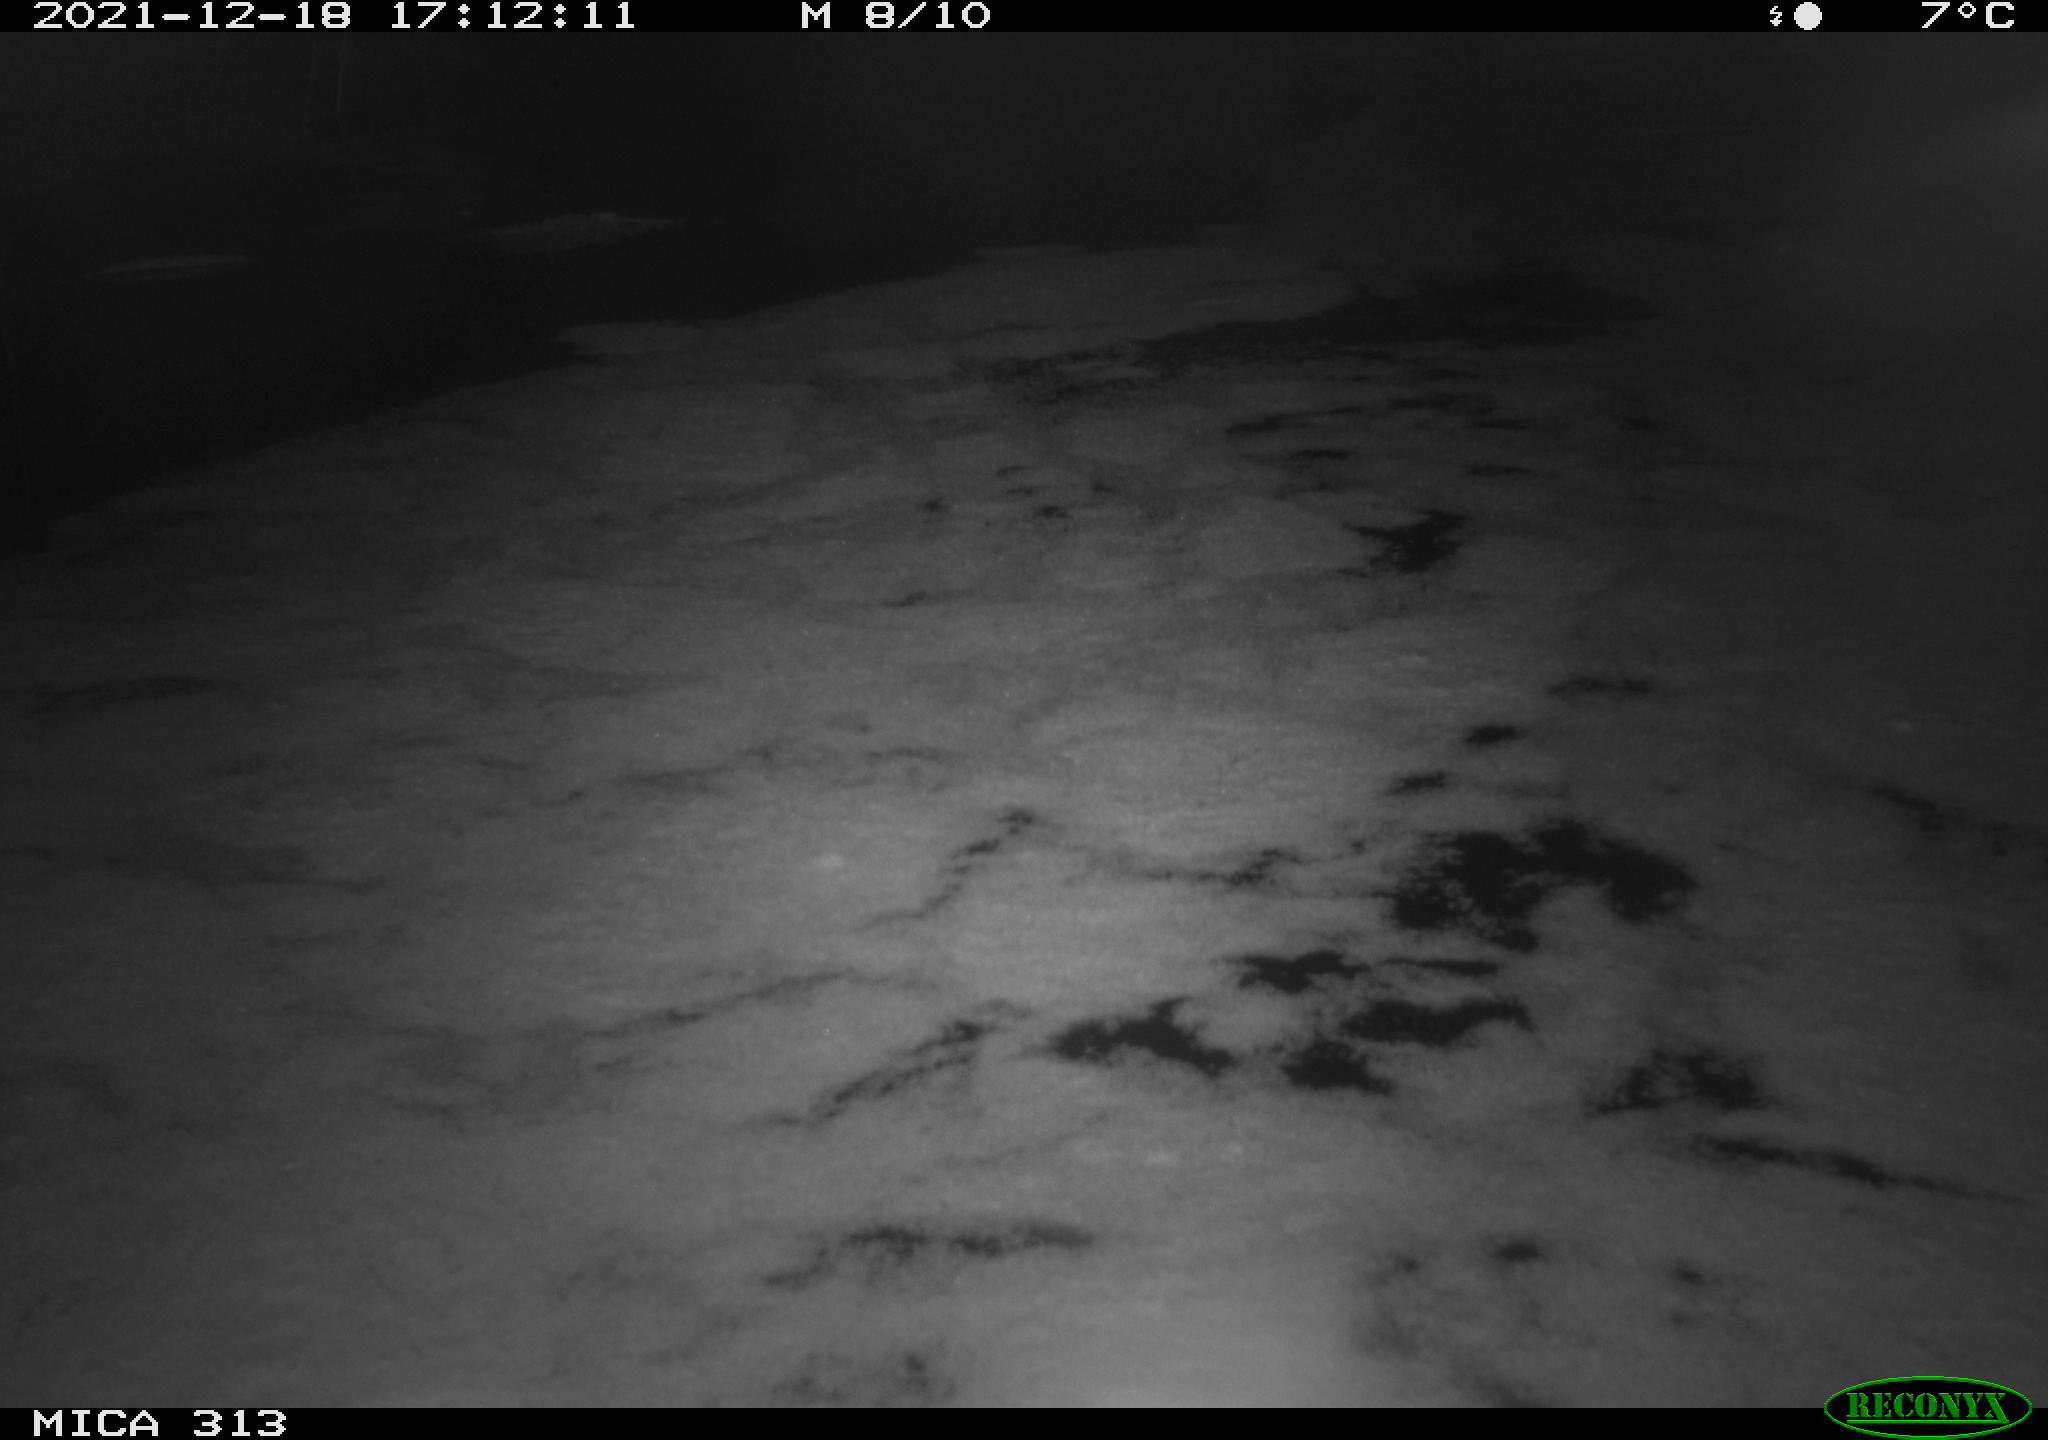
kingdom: Animalia
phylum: Chordata
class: Aves
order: Gruiformes
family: Rallidae
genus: Gallinula
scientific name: Gallinula chloropus
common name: Common moorhen
